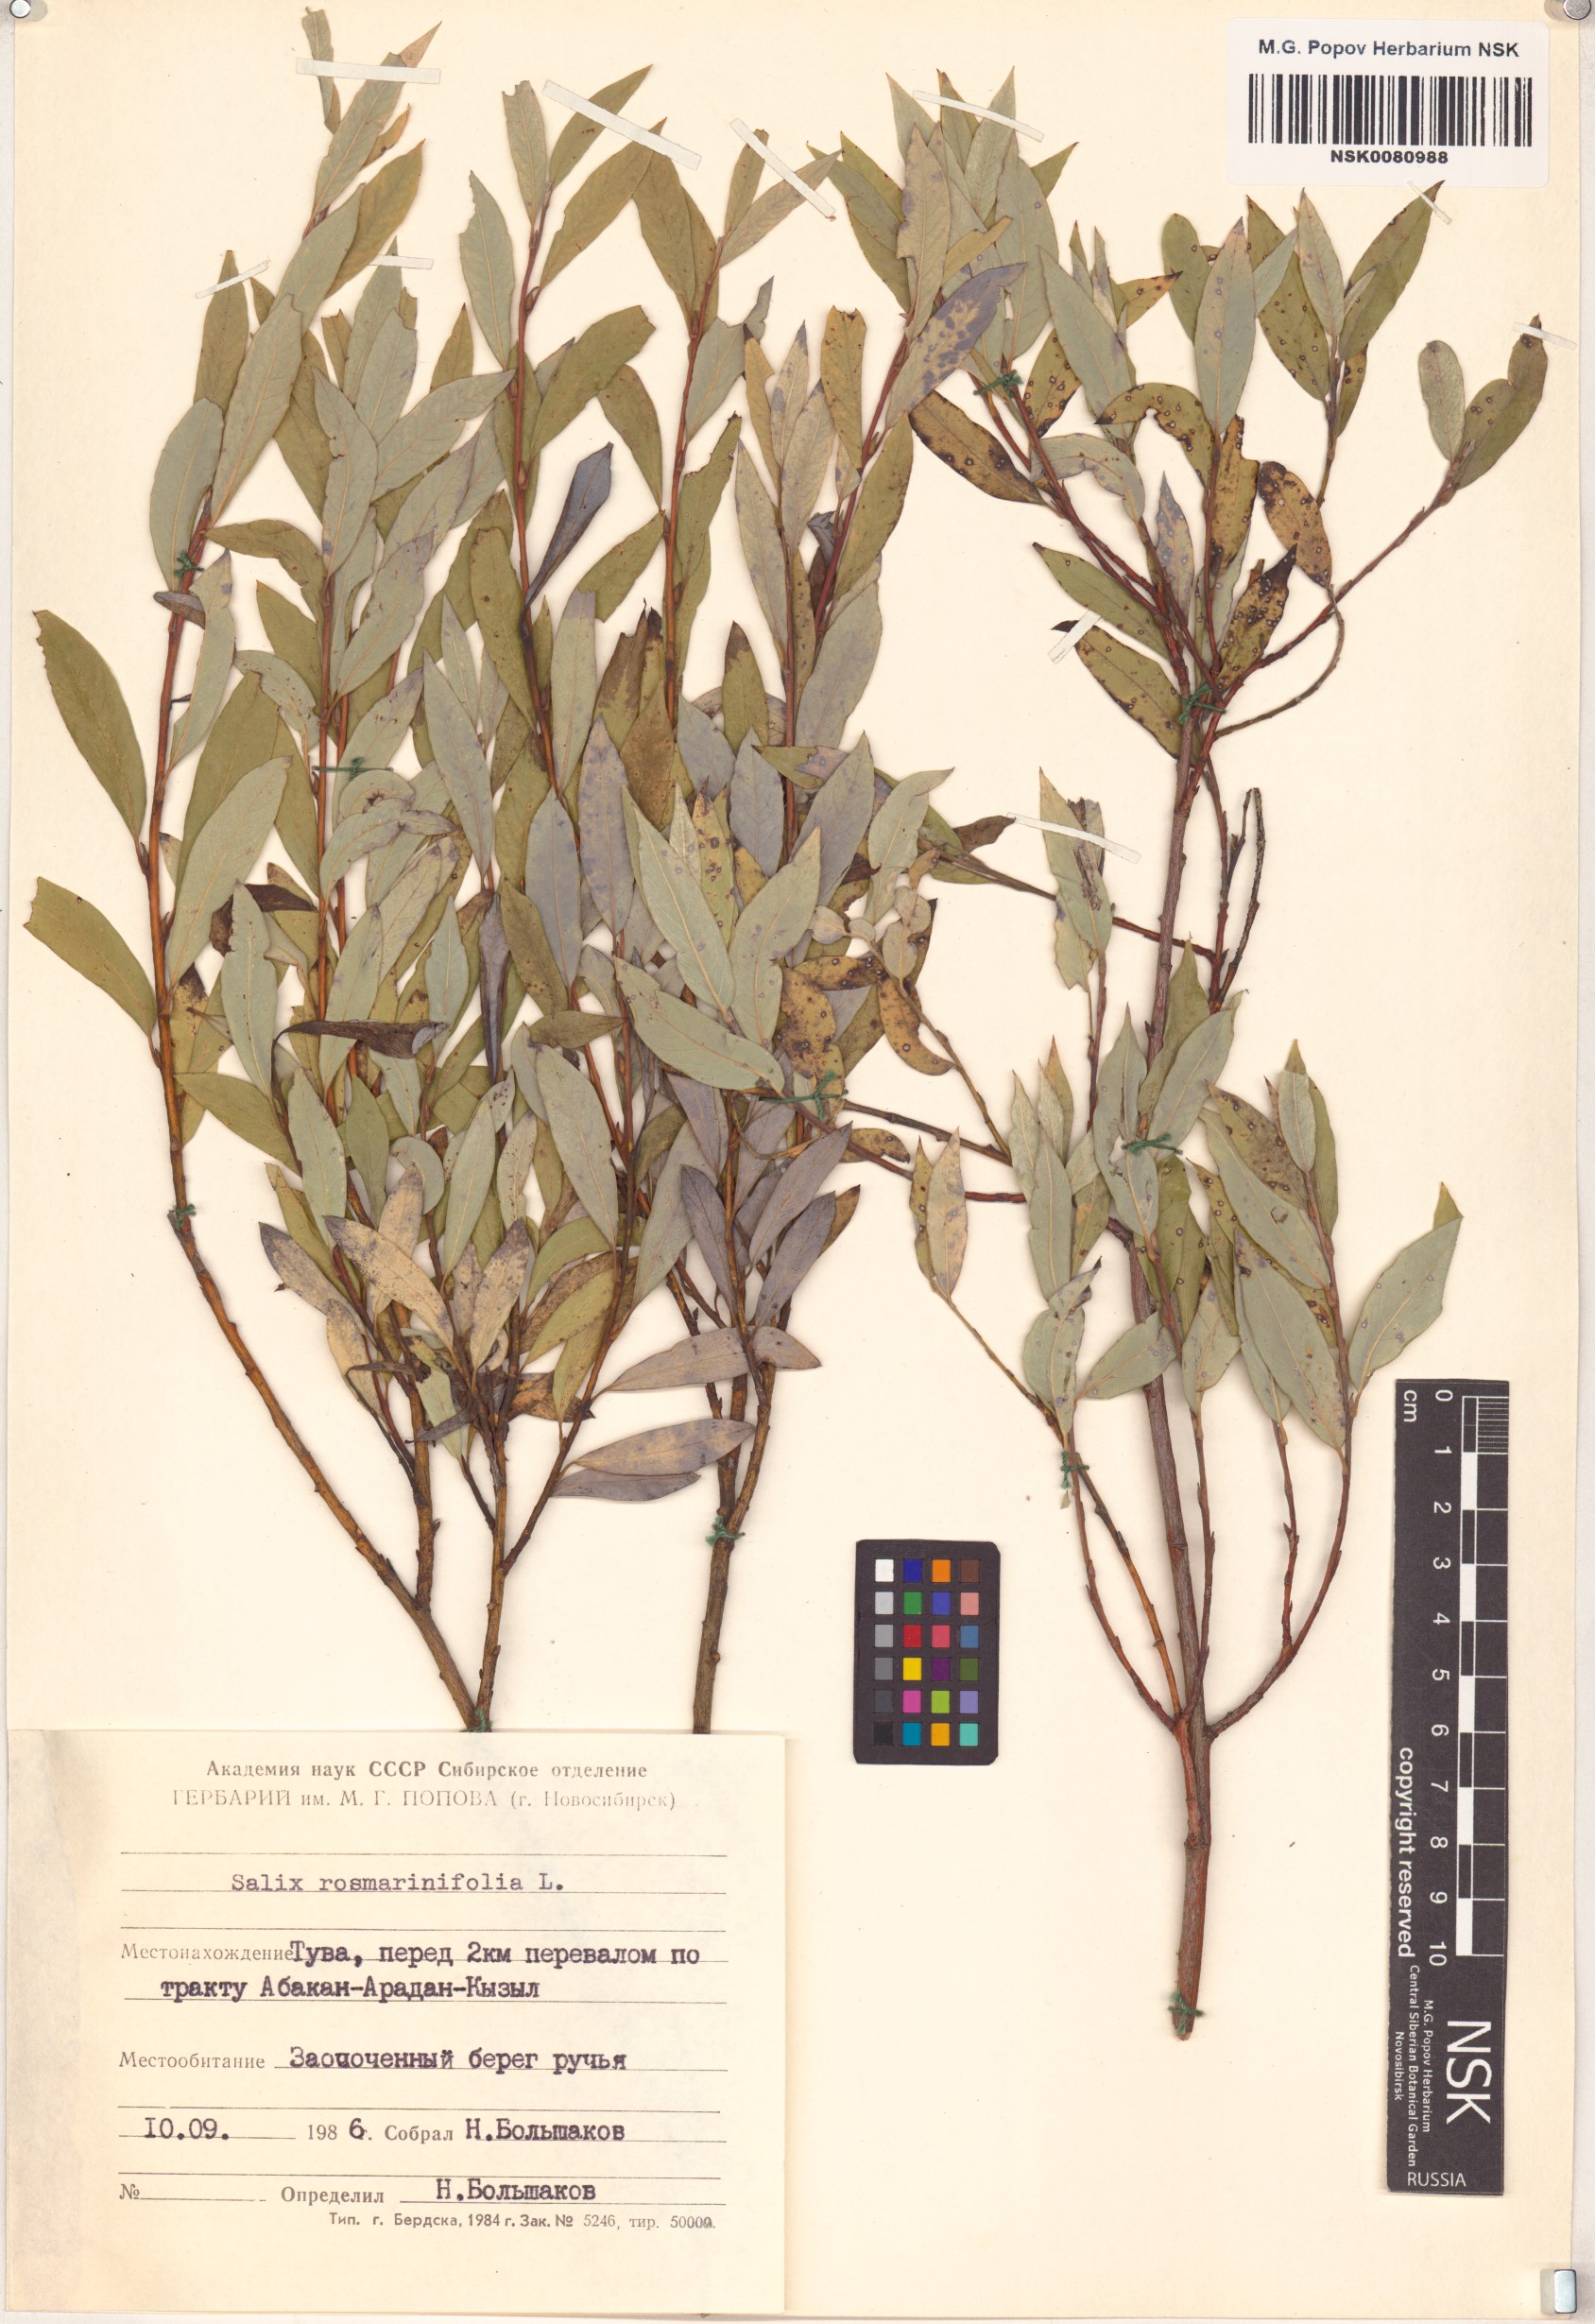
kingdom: Plantae
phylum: Tracheophyta
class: Magnoliopsida
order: Malpighiales
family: Salicaceae
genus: Salix
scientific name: Salix rosmarinifolia
